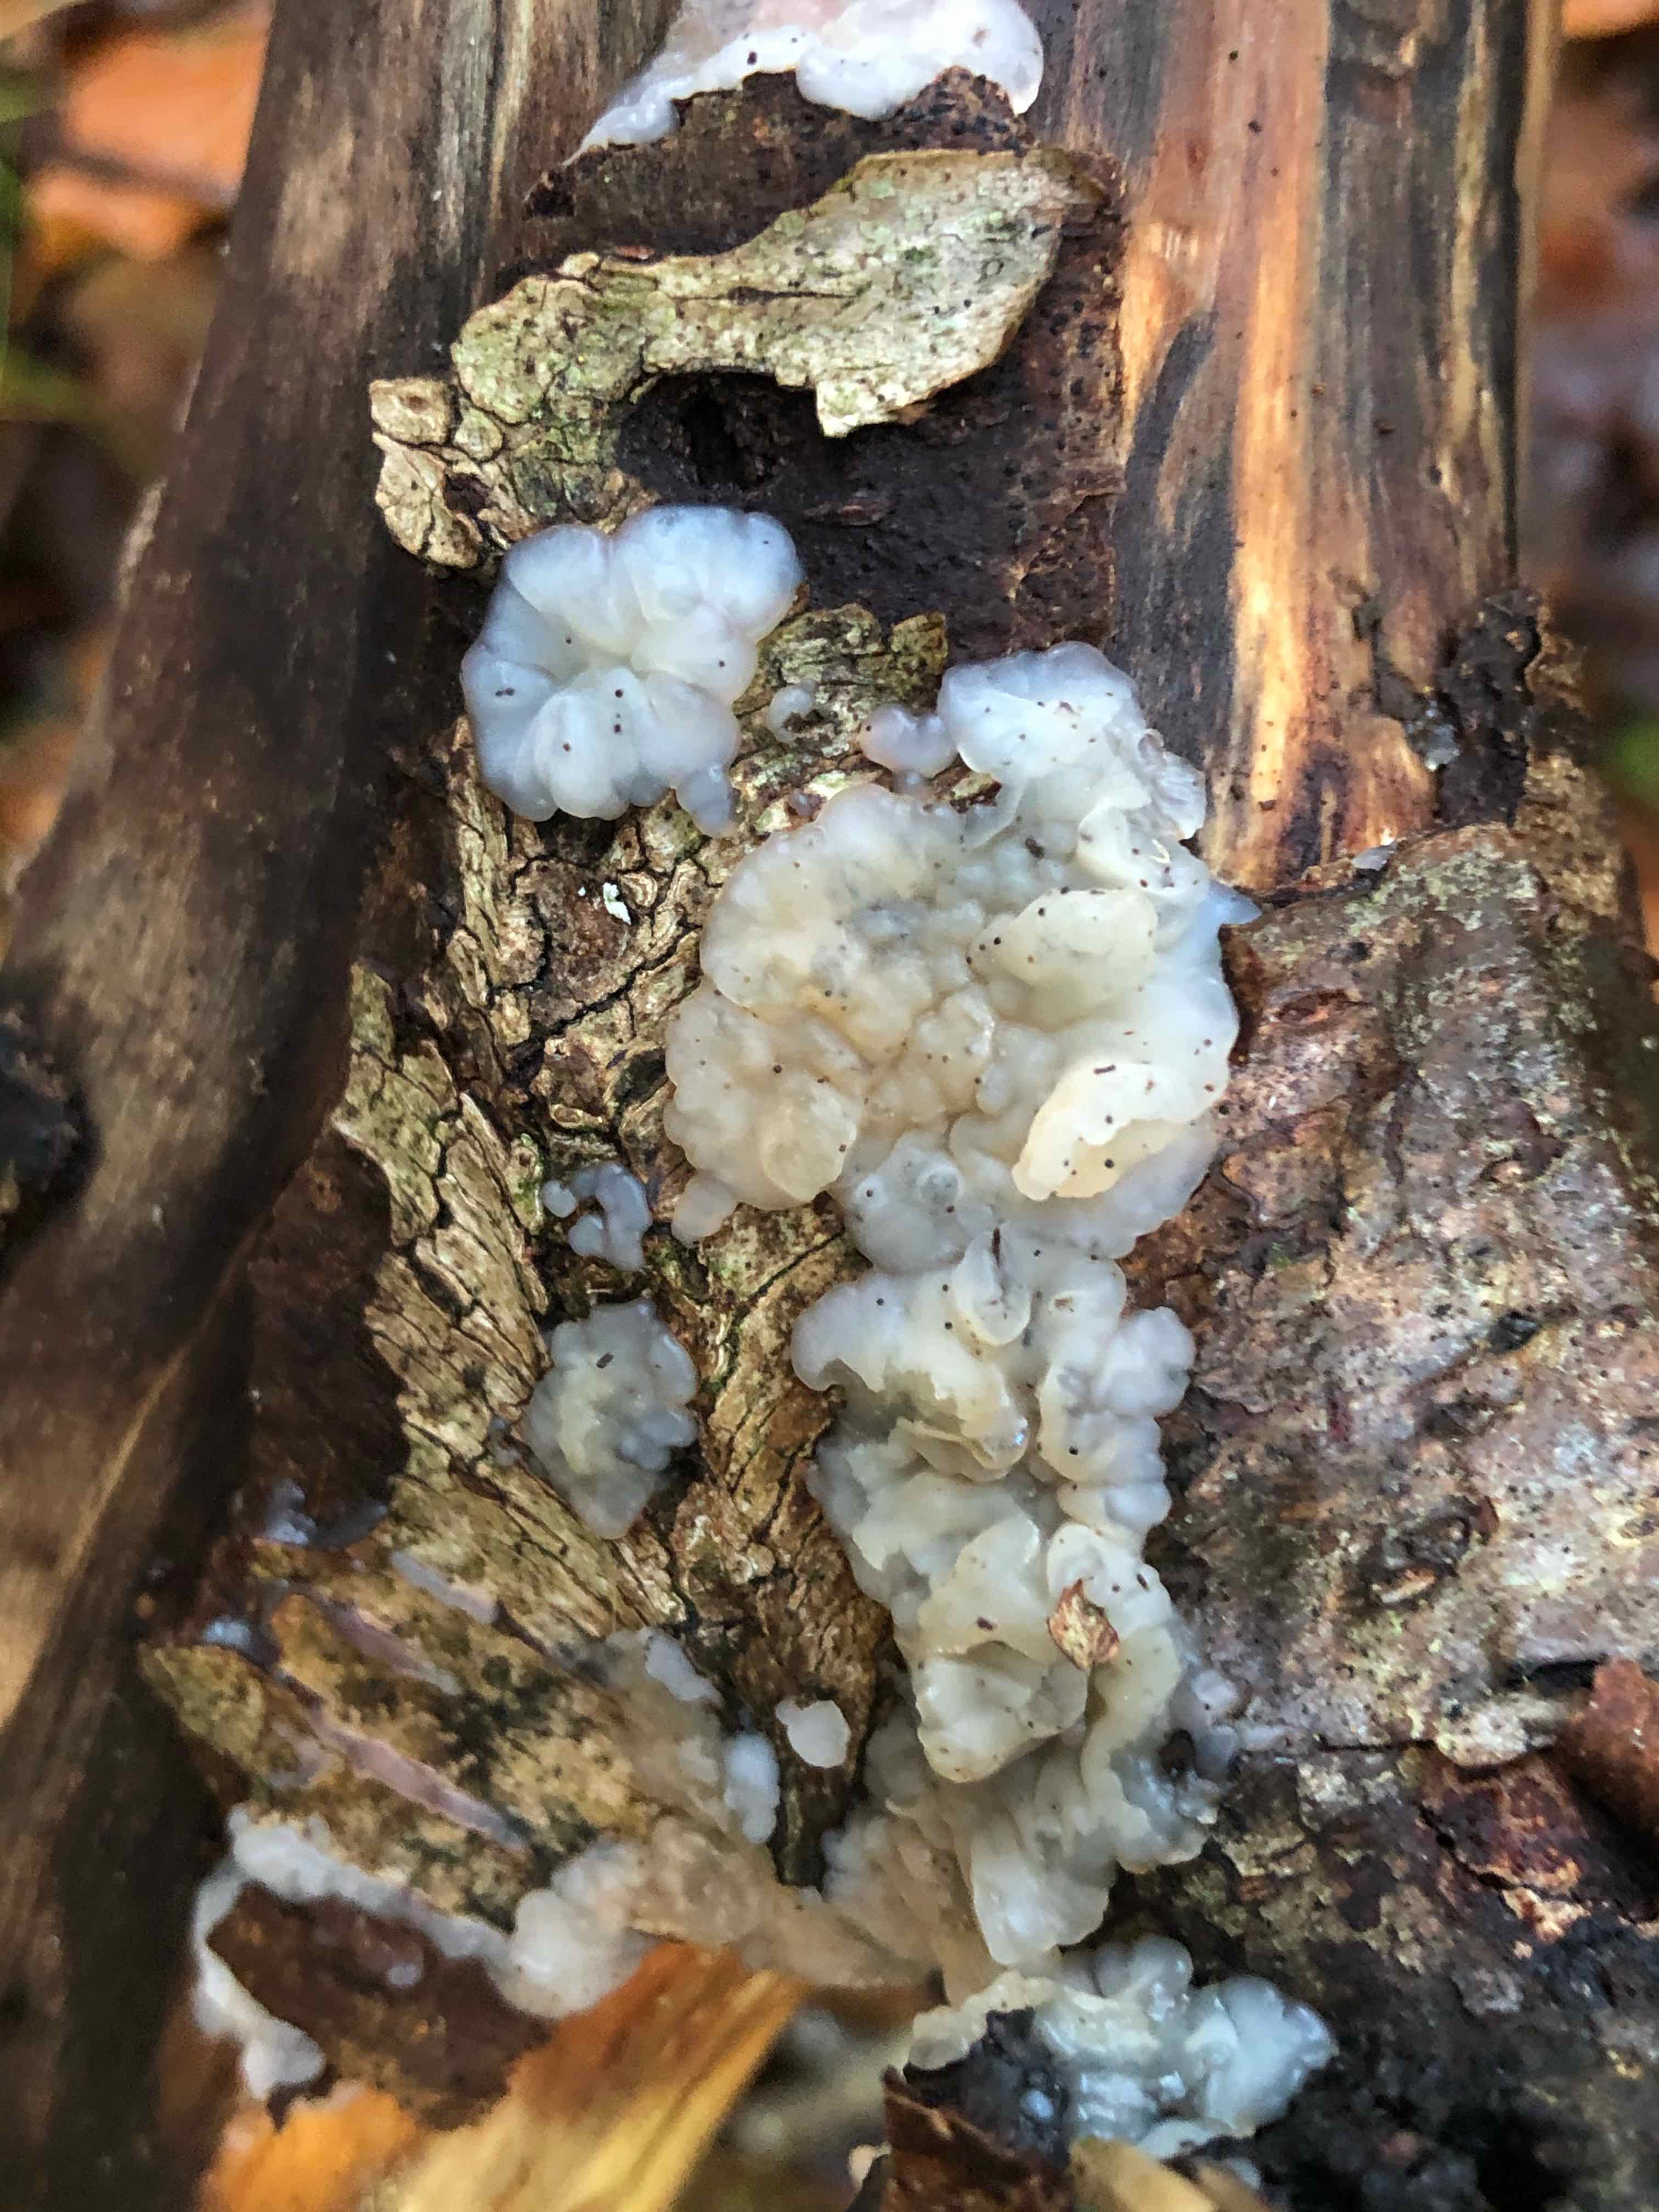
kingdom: Fungi
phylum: Basidiomycota
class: Agaricomycetes
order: Auriculariales
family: Auriculariaceae
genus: Exidia
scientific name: Exidia thuretiana
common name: hvidlig bævretop
